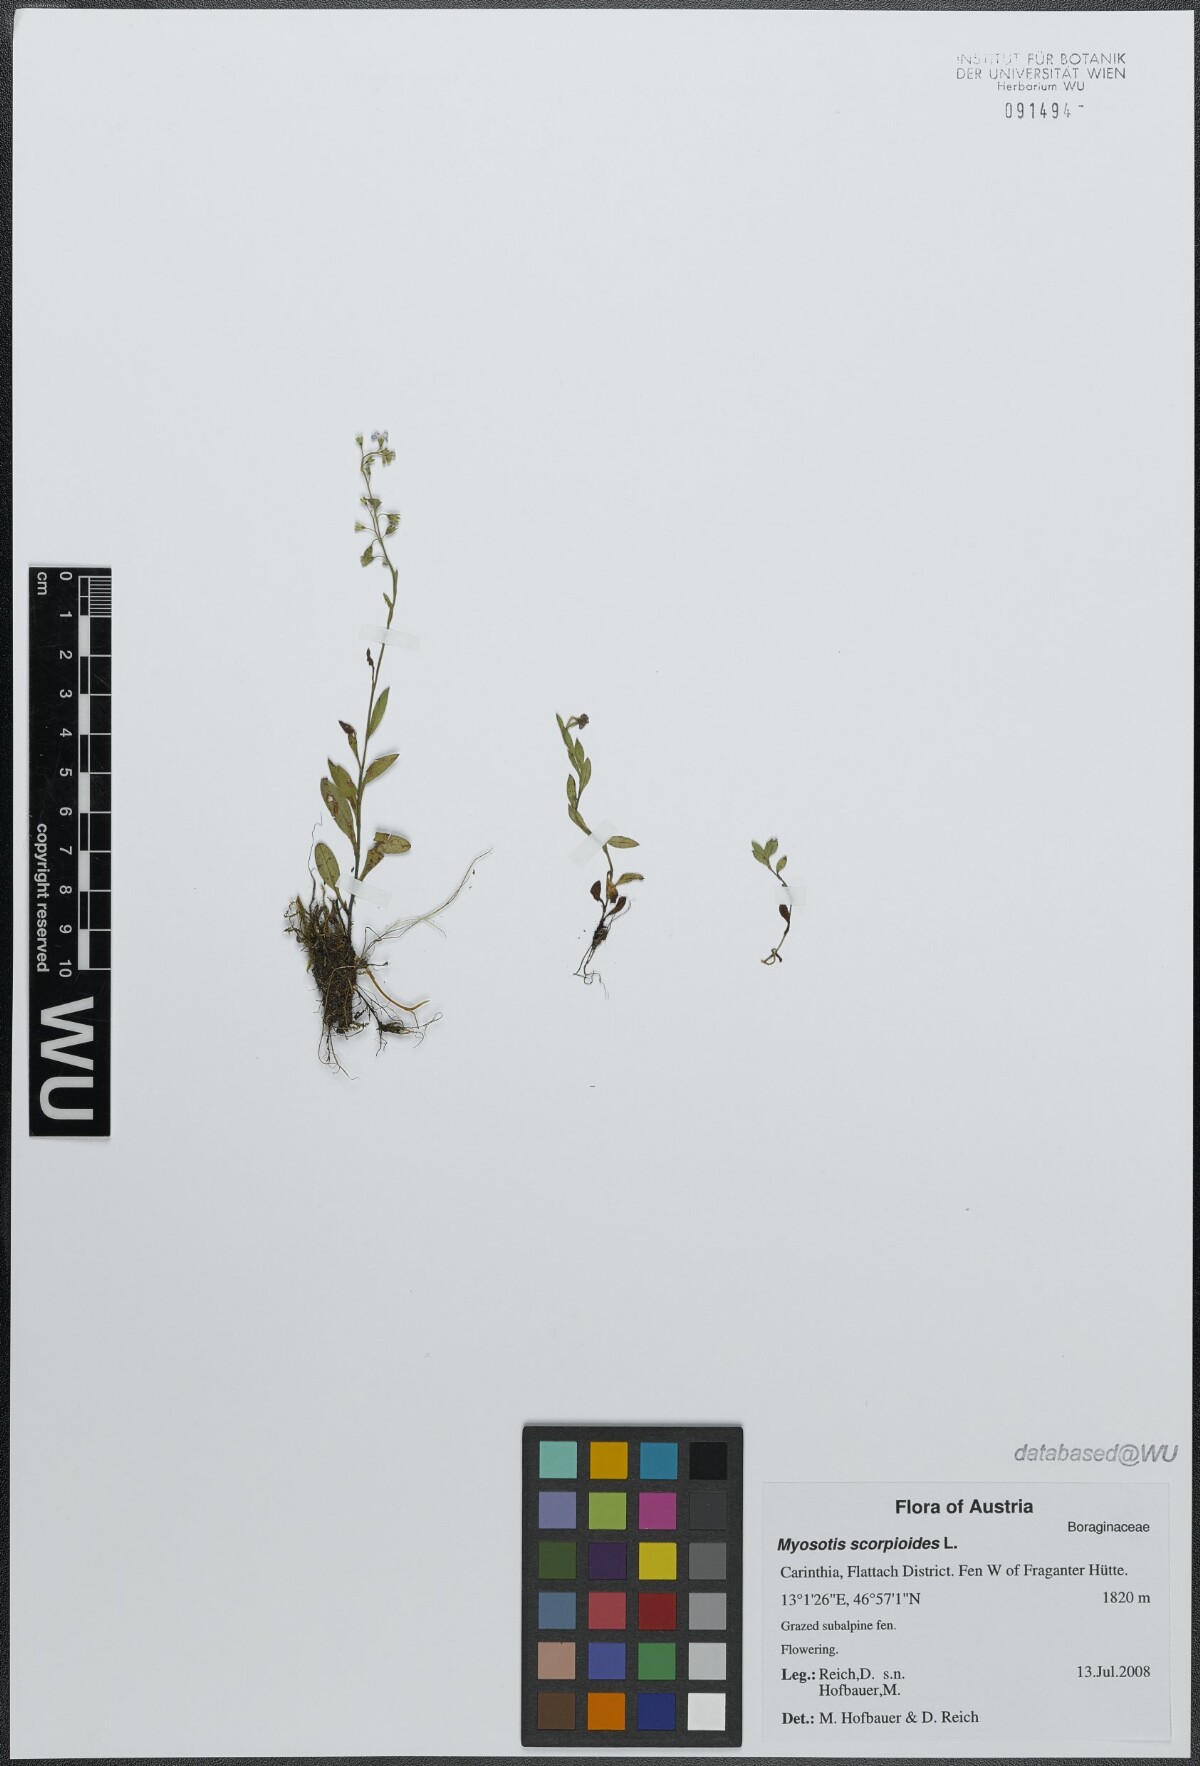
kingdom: Plantae
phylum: Tracheophyta
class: Magnoliopsida
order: Boraginales
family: Boraginaceae
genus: Myosotis
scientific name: Myosotis scorpioides
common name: Water forget-me-not
